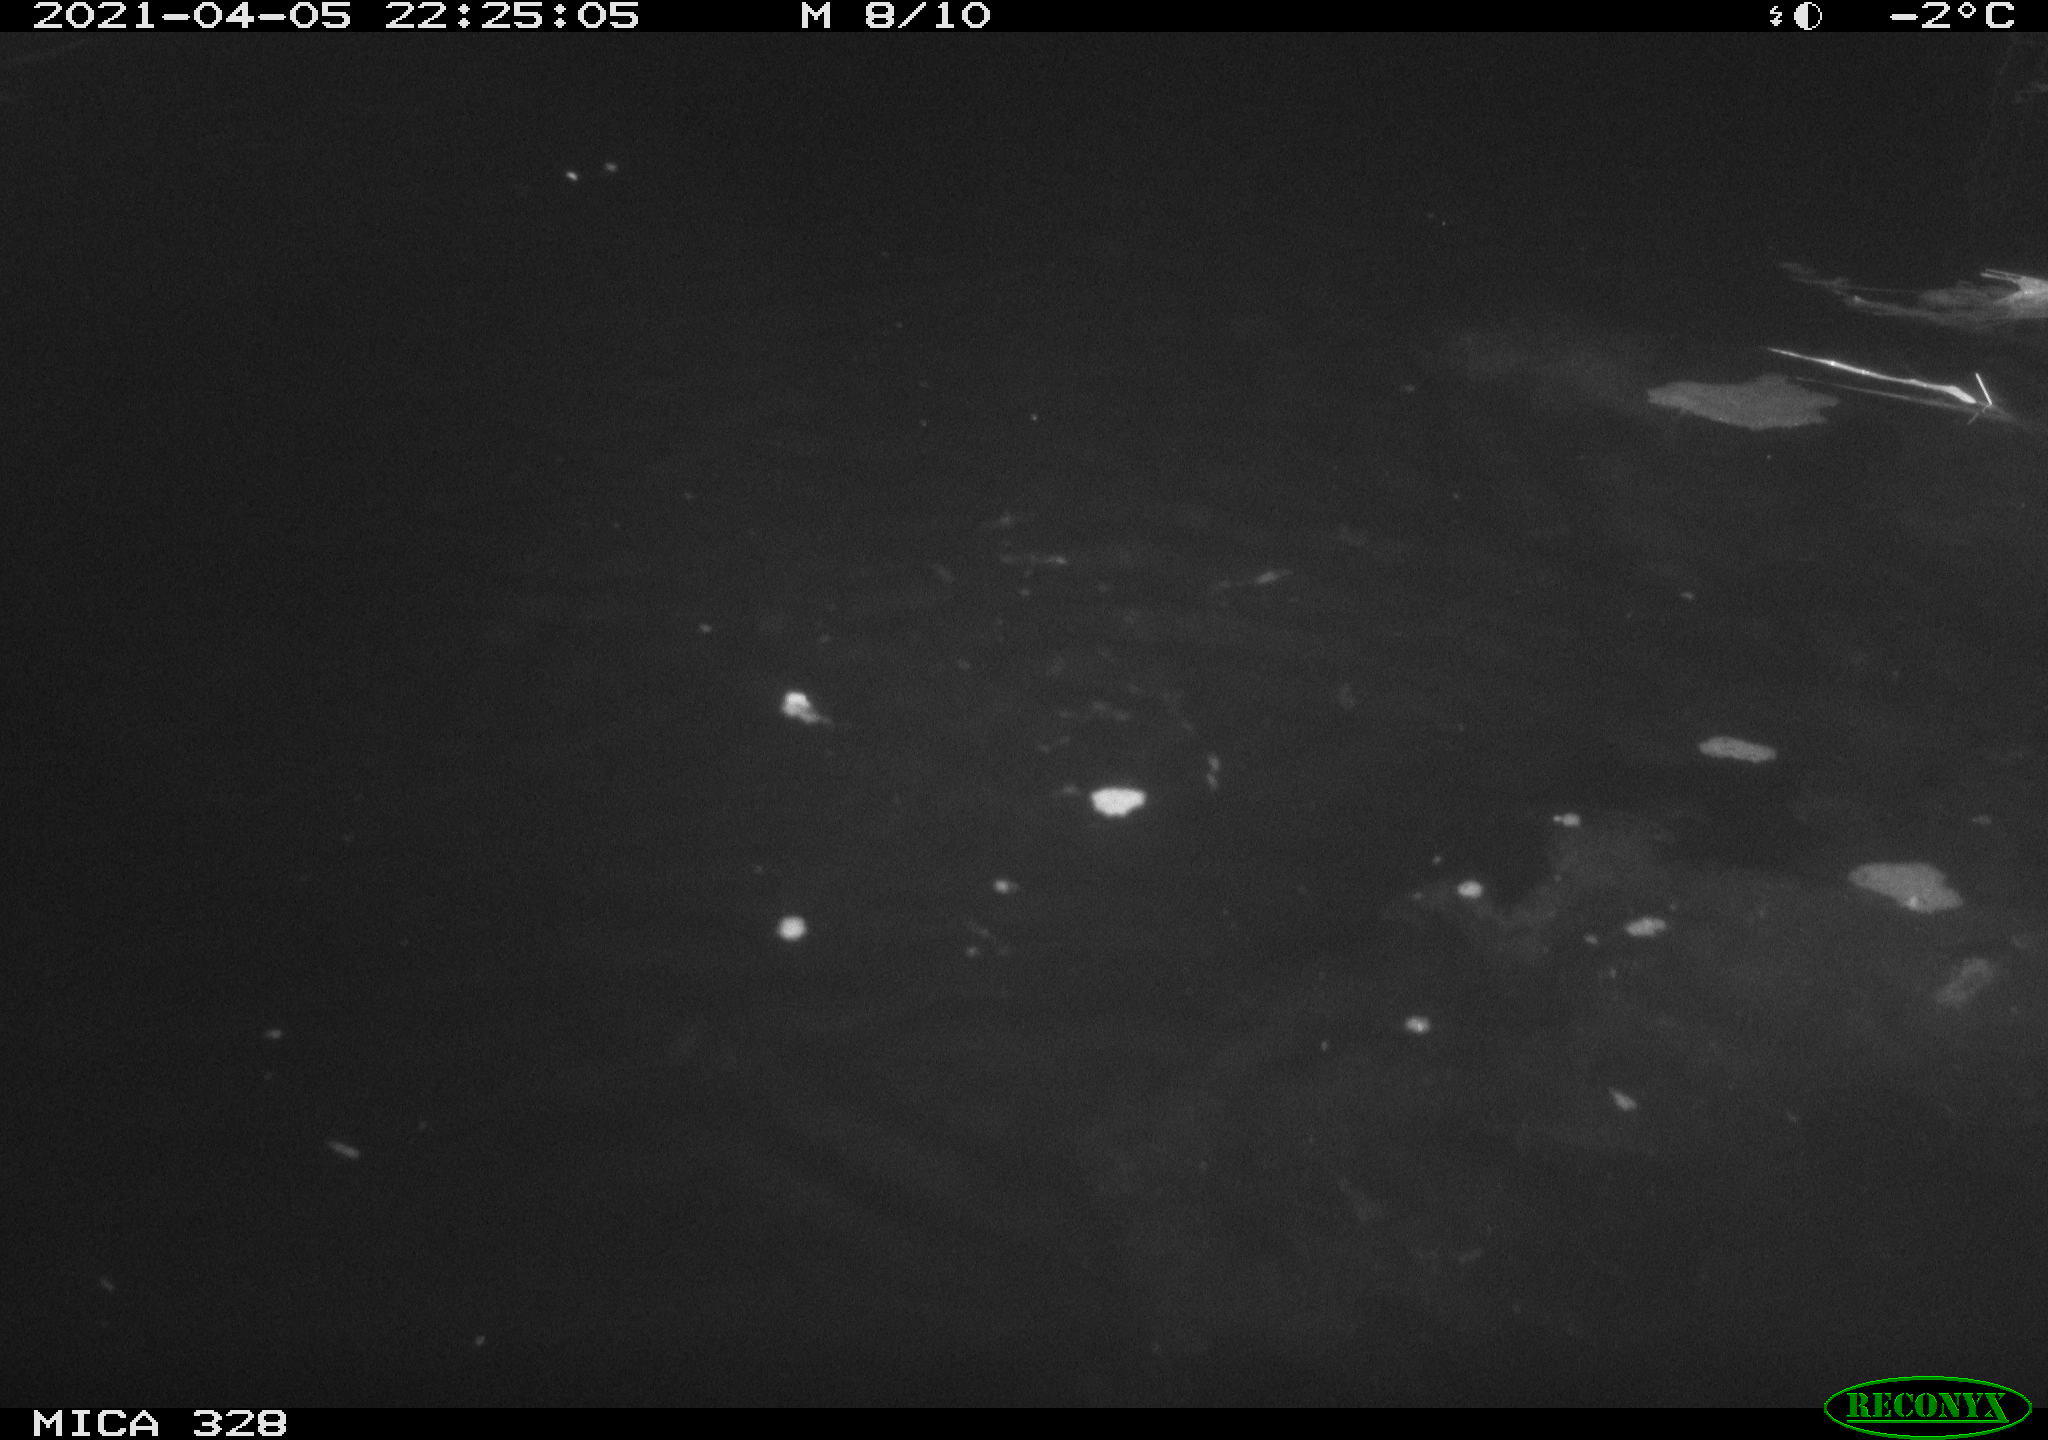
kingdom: Animalia
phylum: Chordata
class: Mammalia
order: Rodentia
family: Cricetidae
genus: Ondatra
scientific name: Ondatra zibethicus
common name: Muskrat
